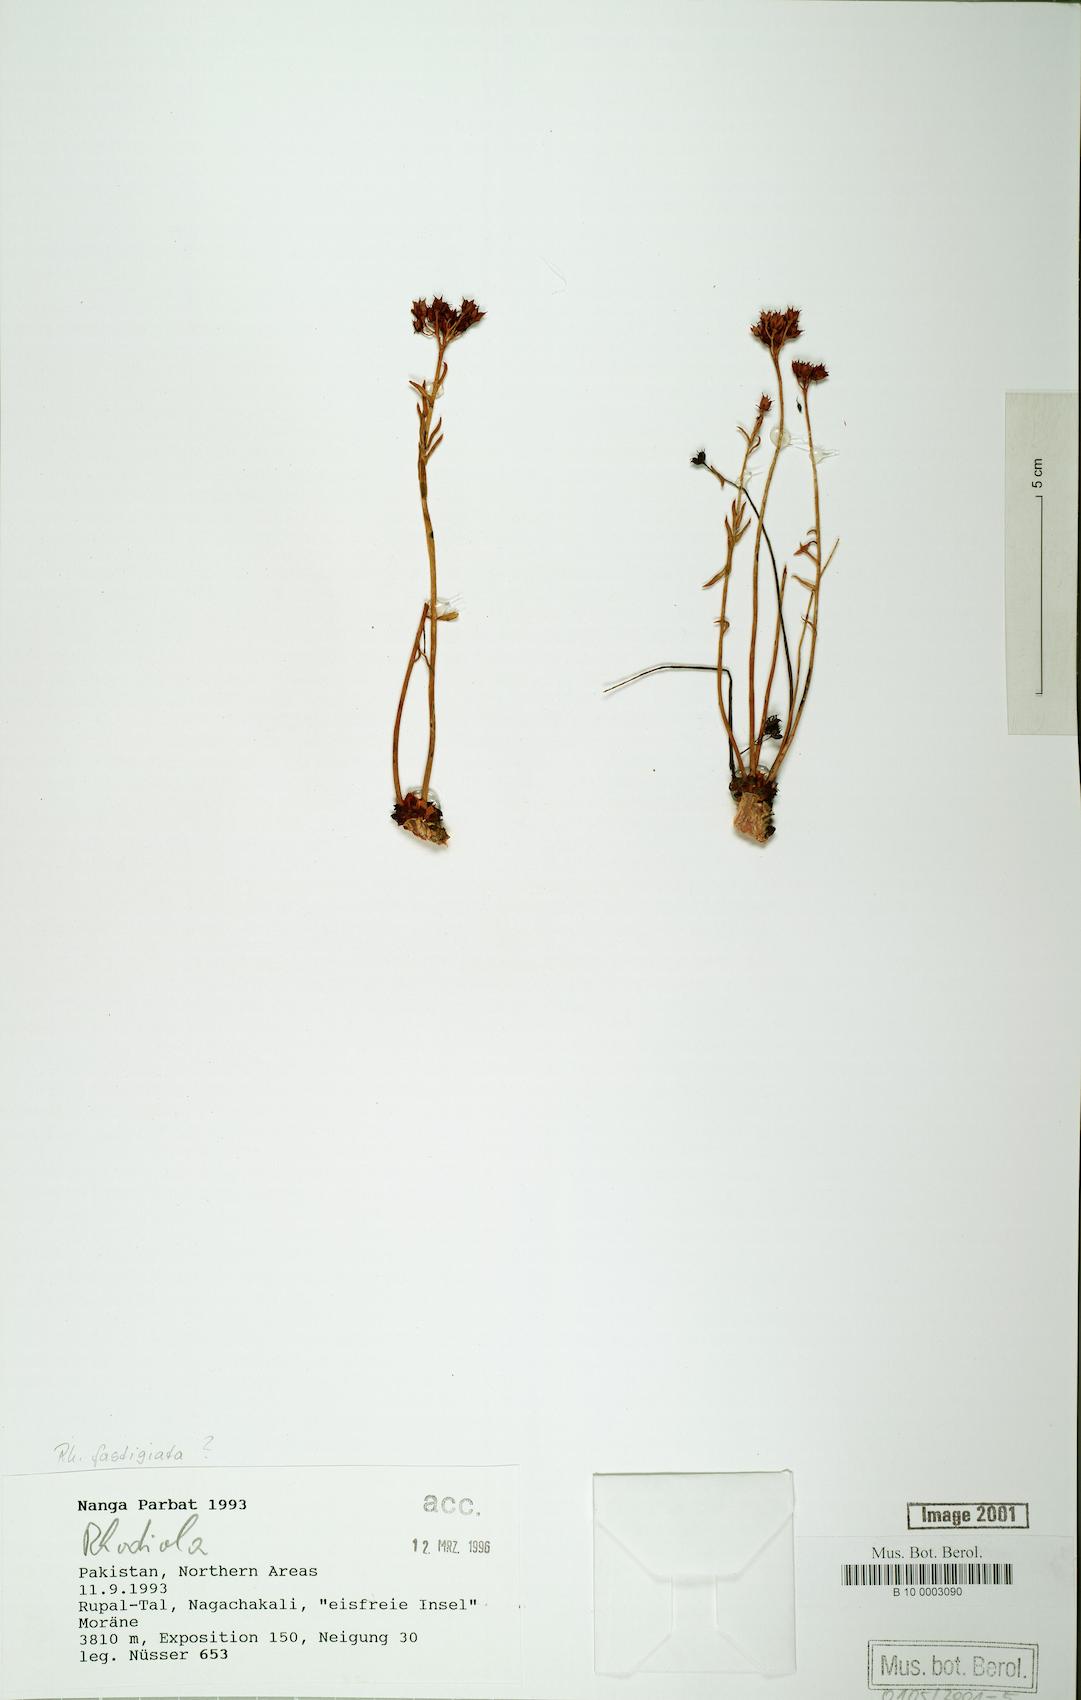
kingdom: Plantae
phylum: Tracheophyta
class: Magnoliopsida
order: Saxifragales
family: Crassulaceae
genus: Rhodiola
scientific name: Rhodiola fastigiata
